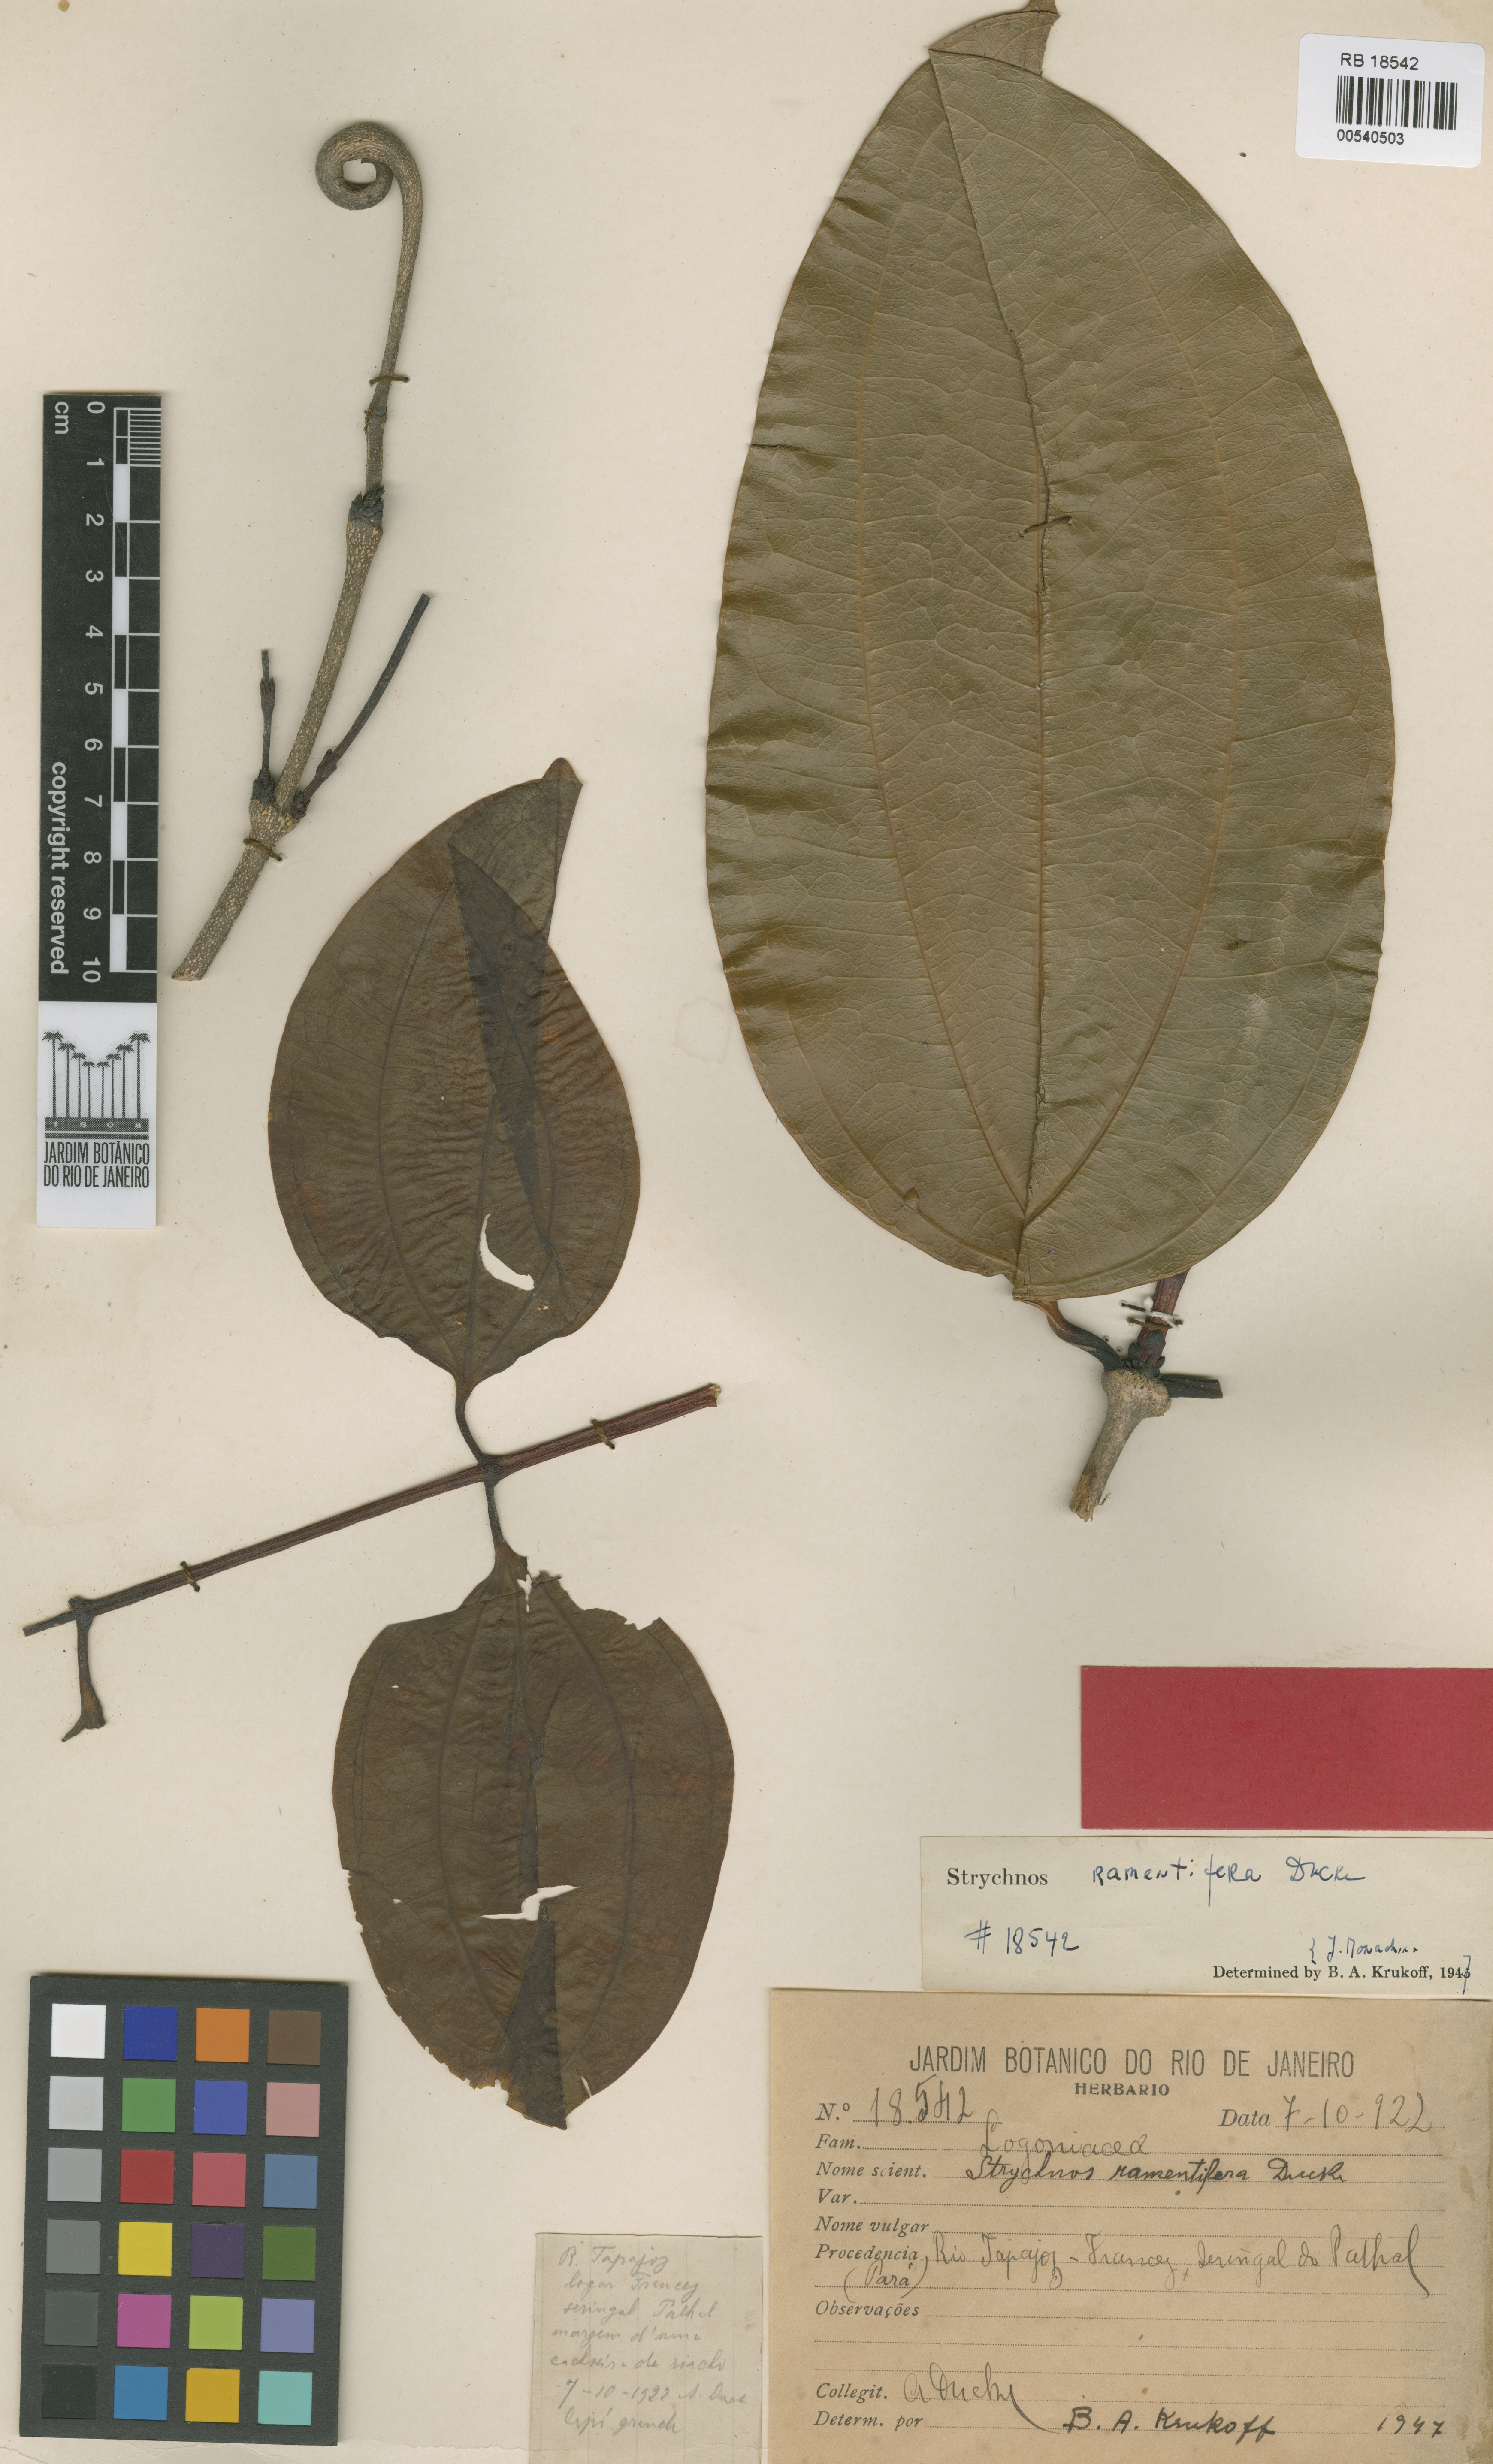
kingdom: Plantae
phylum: Tracheophyta
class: Magnoliopsida
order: Gentianales
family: Loganiaceae
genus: Strychnos
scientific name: Strychnos ramentifera
